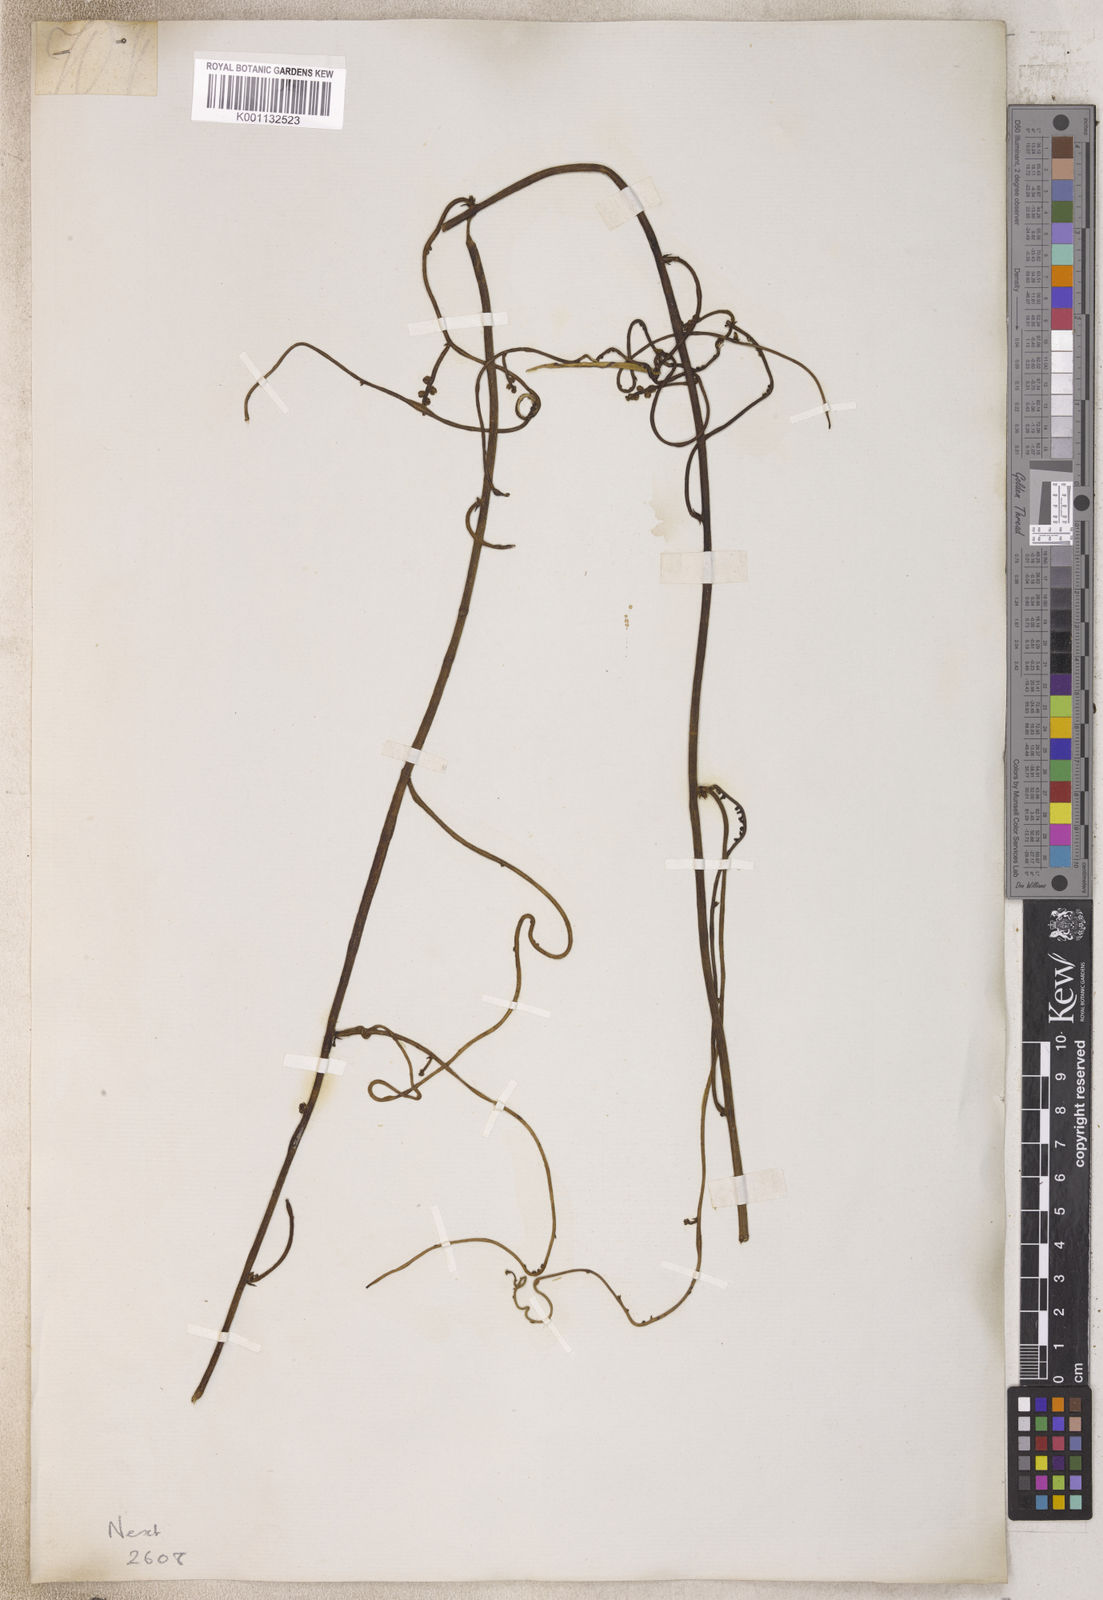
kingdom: Plantae
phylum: Tracheophyta
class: Magnoliopsida
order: Laurales
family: Lauraceae
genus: Cassytha
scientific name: Cassytha
